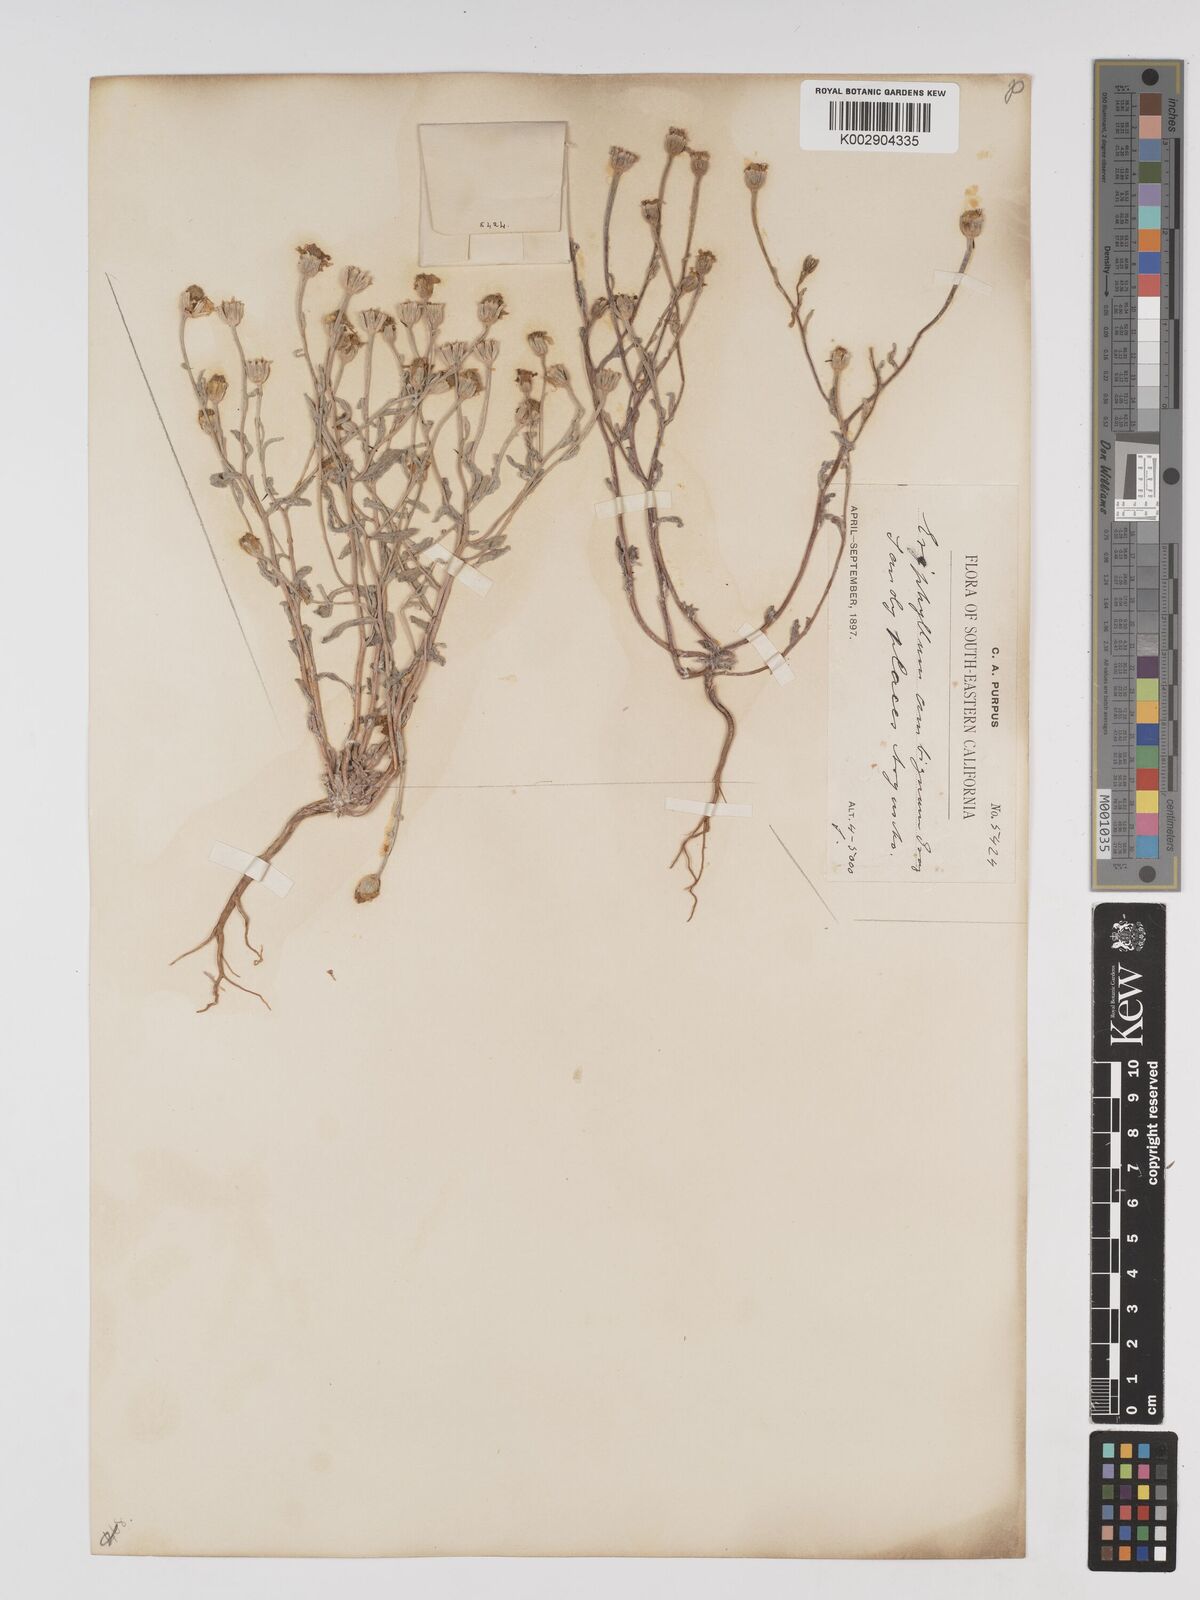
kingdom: Plantae
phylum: Tracheophyta
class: Magnoliopsida
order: Asterales
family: Asteraceae
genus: Eriophyllum
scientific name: Eriophyllum ambiguum
